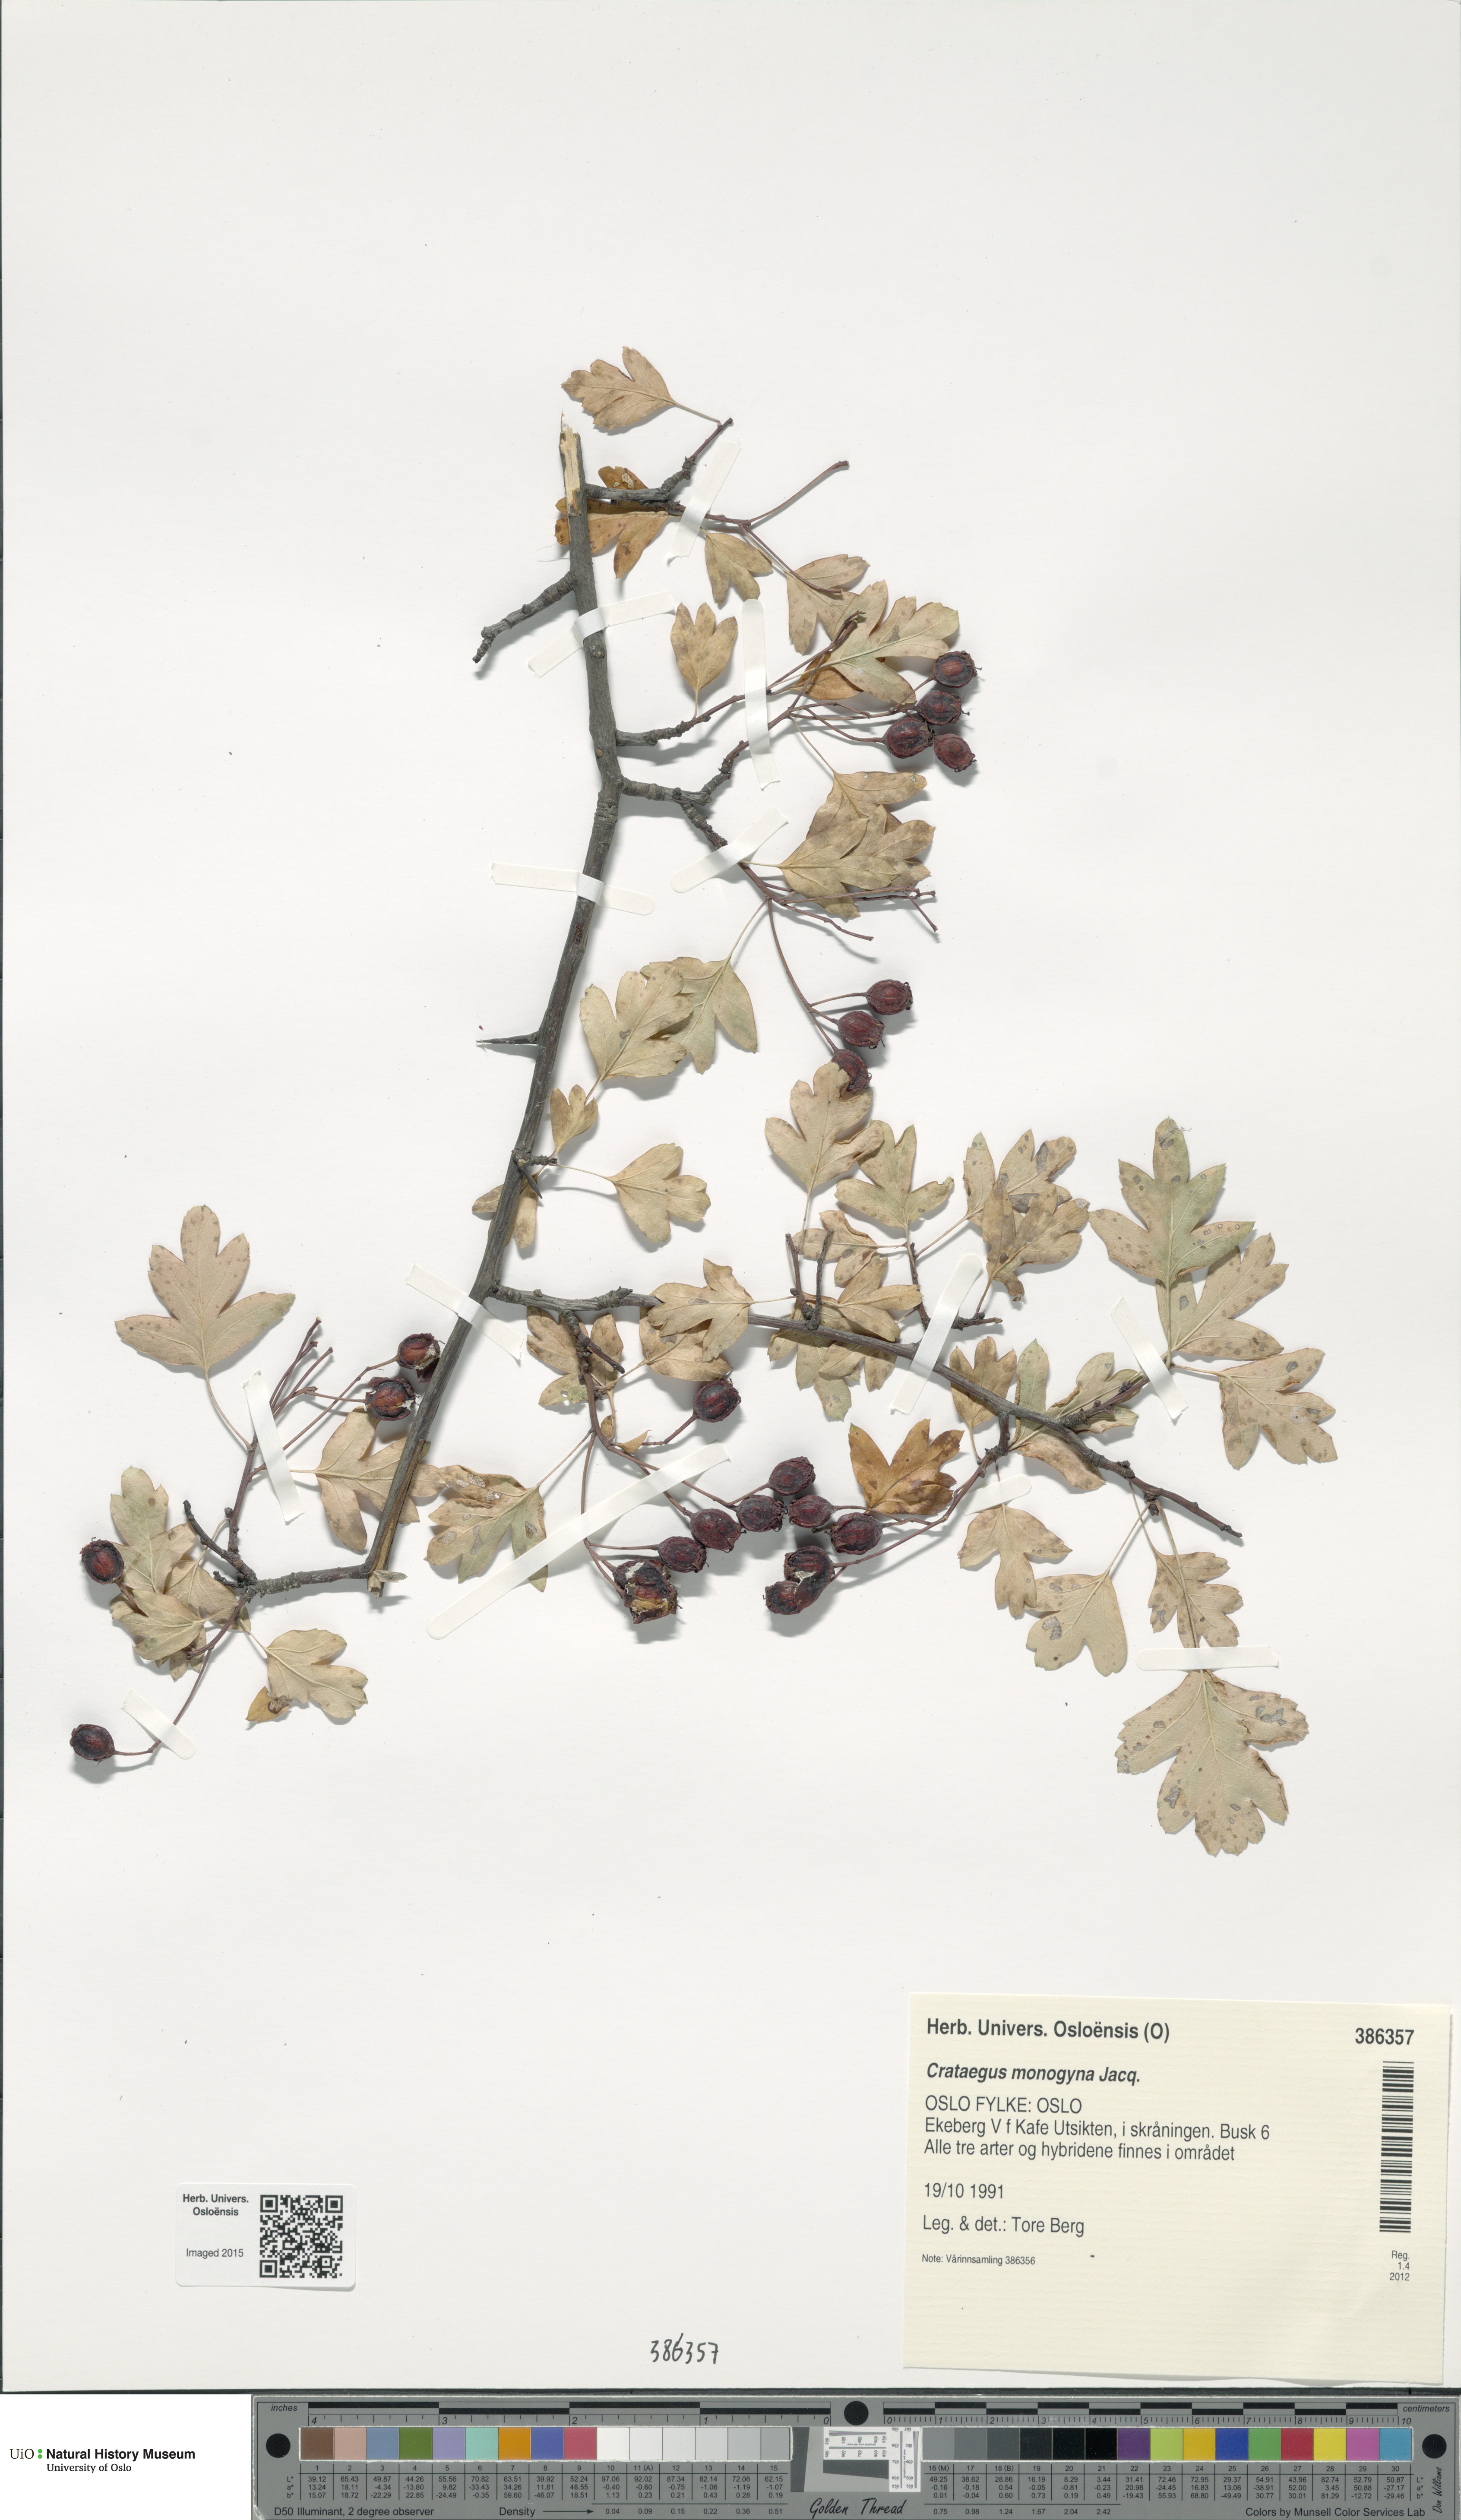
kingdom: Plantae
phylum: Tracheophyta
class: Magnoliopsida
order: Rosales
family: Rosaceae
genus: Crataegus
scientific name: Crataegus monogyna
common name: Hawthorn
